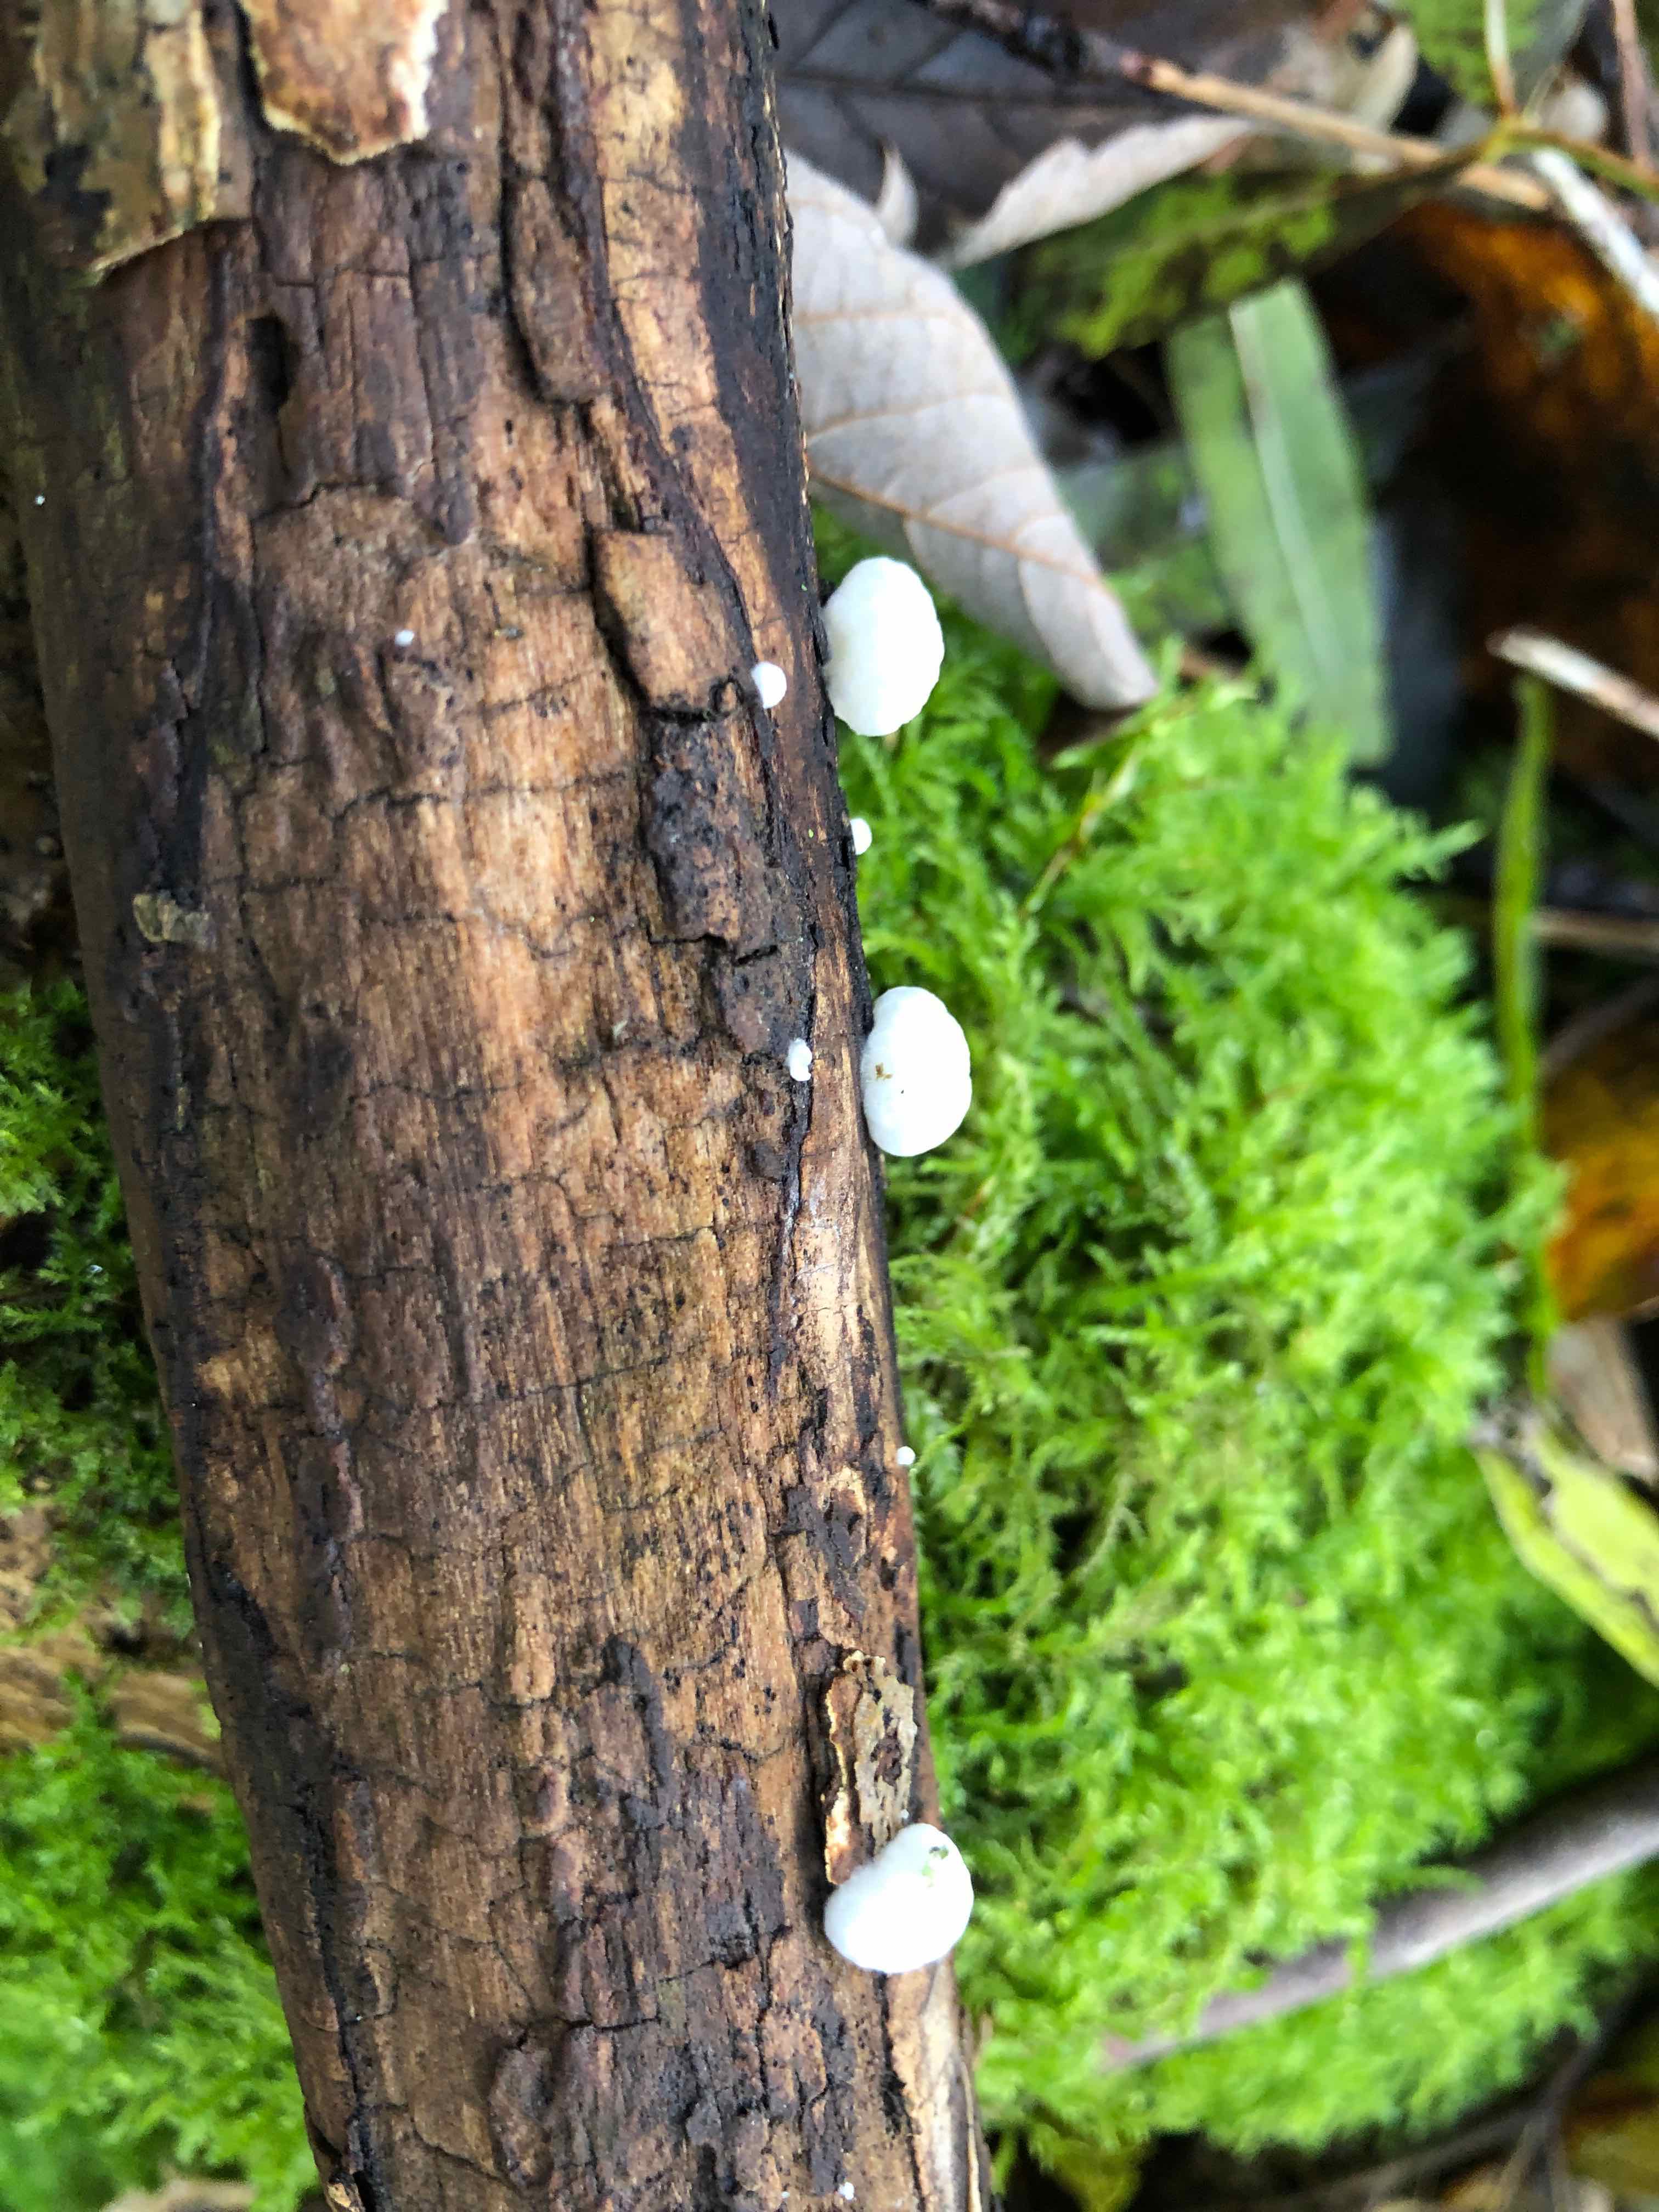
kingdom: Fungi
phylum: Basidiomycota
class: Agaricomycetes
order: Agaricales
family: Crepidotaceae
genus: Crepidotus
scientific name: Crepidotus cesatii
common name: almindelig muslingesvamp
